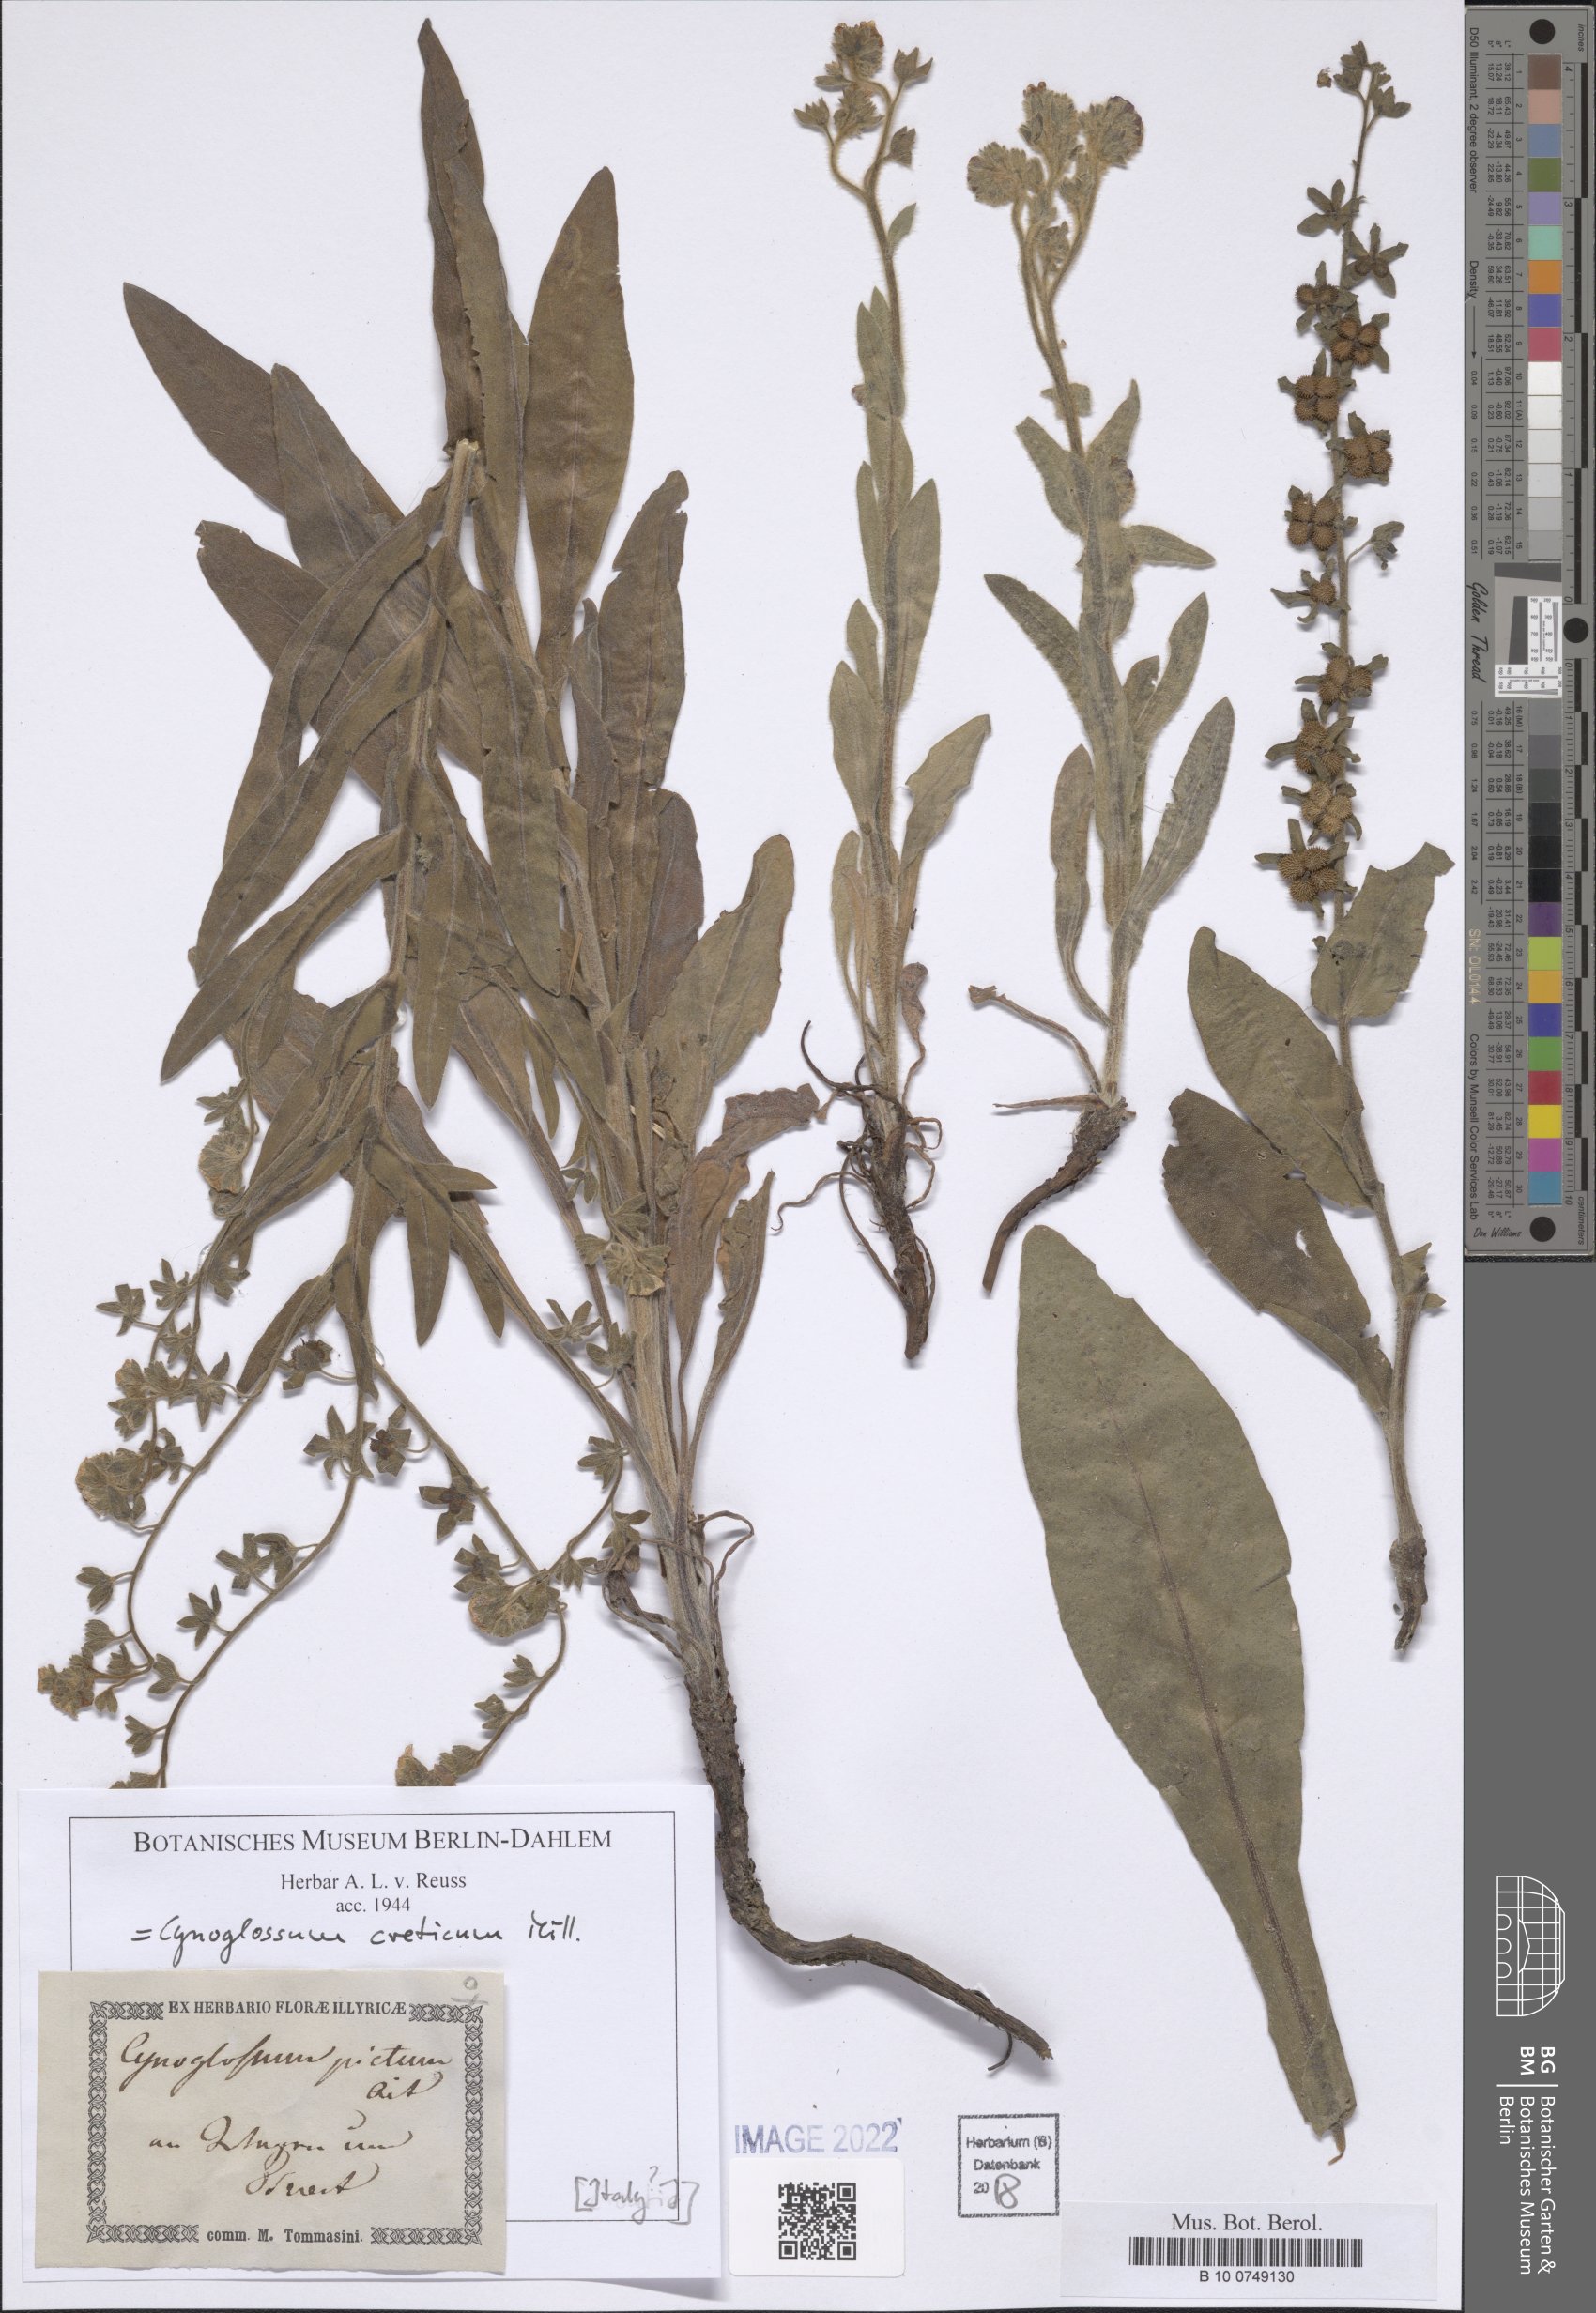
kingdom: Plantae
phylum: Tracheophyta
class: Magnoliopsida
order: Boraginales
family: Boraginaceae
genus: Cynoglossum
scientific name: Cynoglossum creticum
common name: Blue hound's tongue
